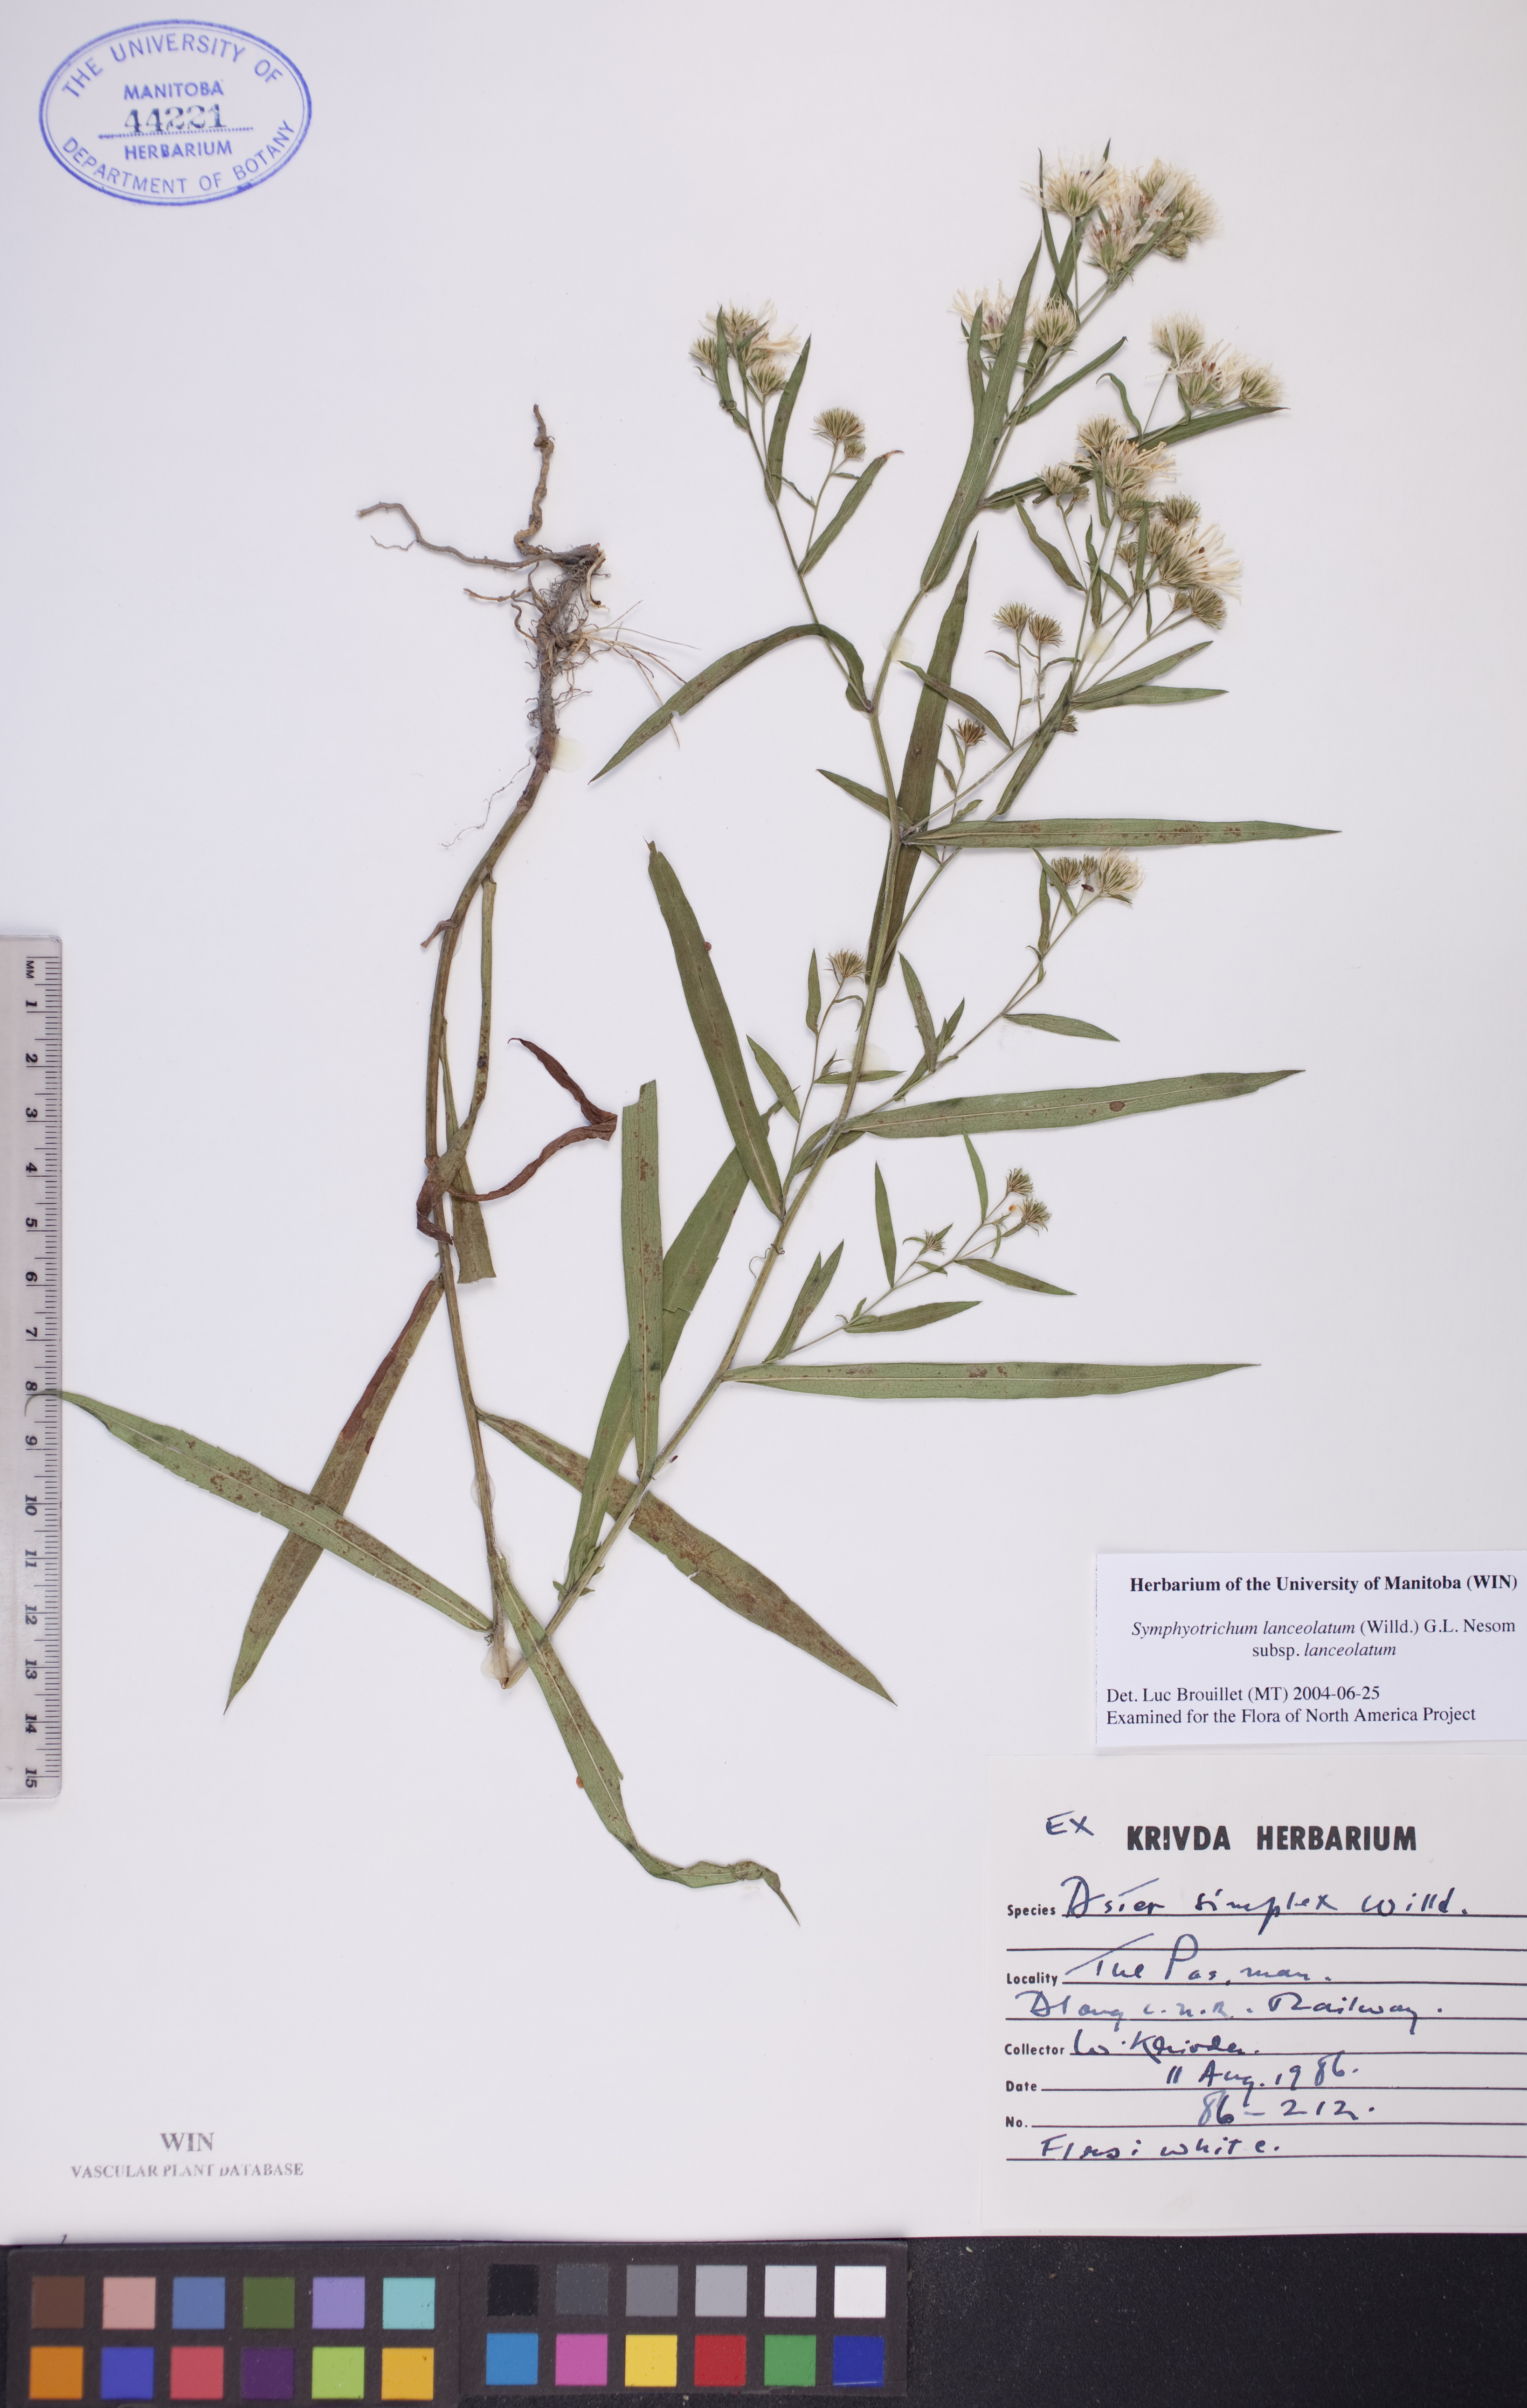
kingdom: Plantae
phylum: Tracheophyta
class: Magnoliopsida
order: Asterales
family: Asteraceae
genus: Symphyotrichum
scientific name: Symphyotrichum lanceolatum
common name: Panicled aster
